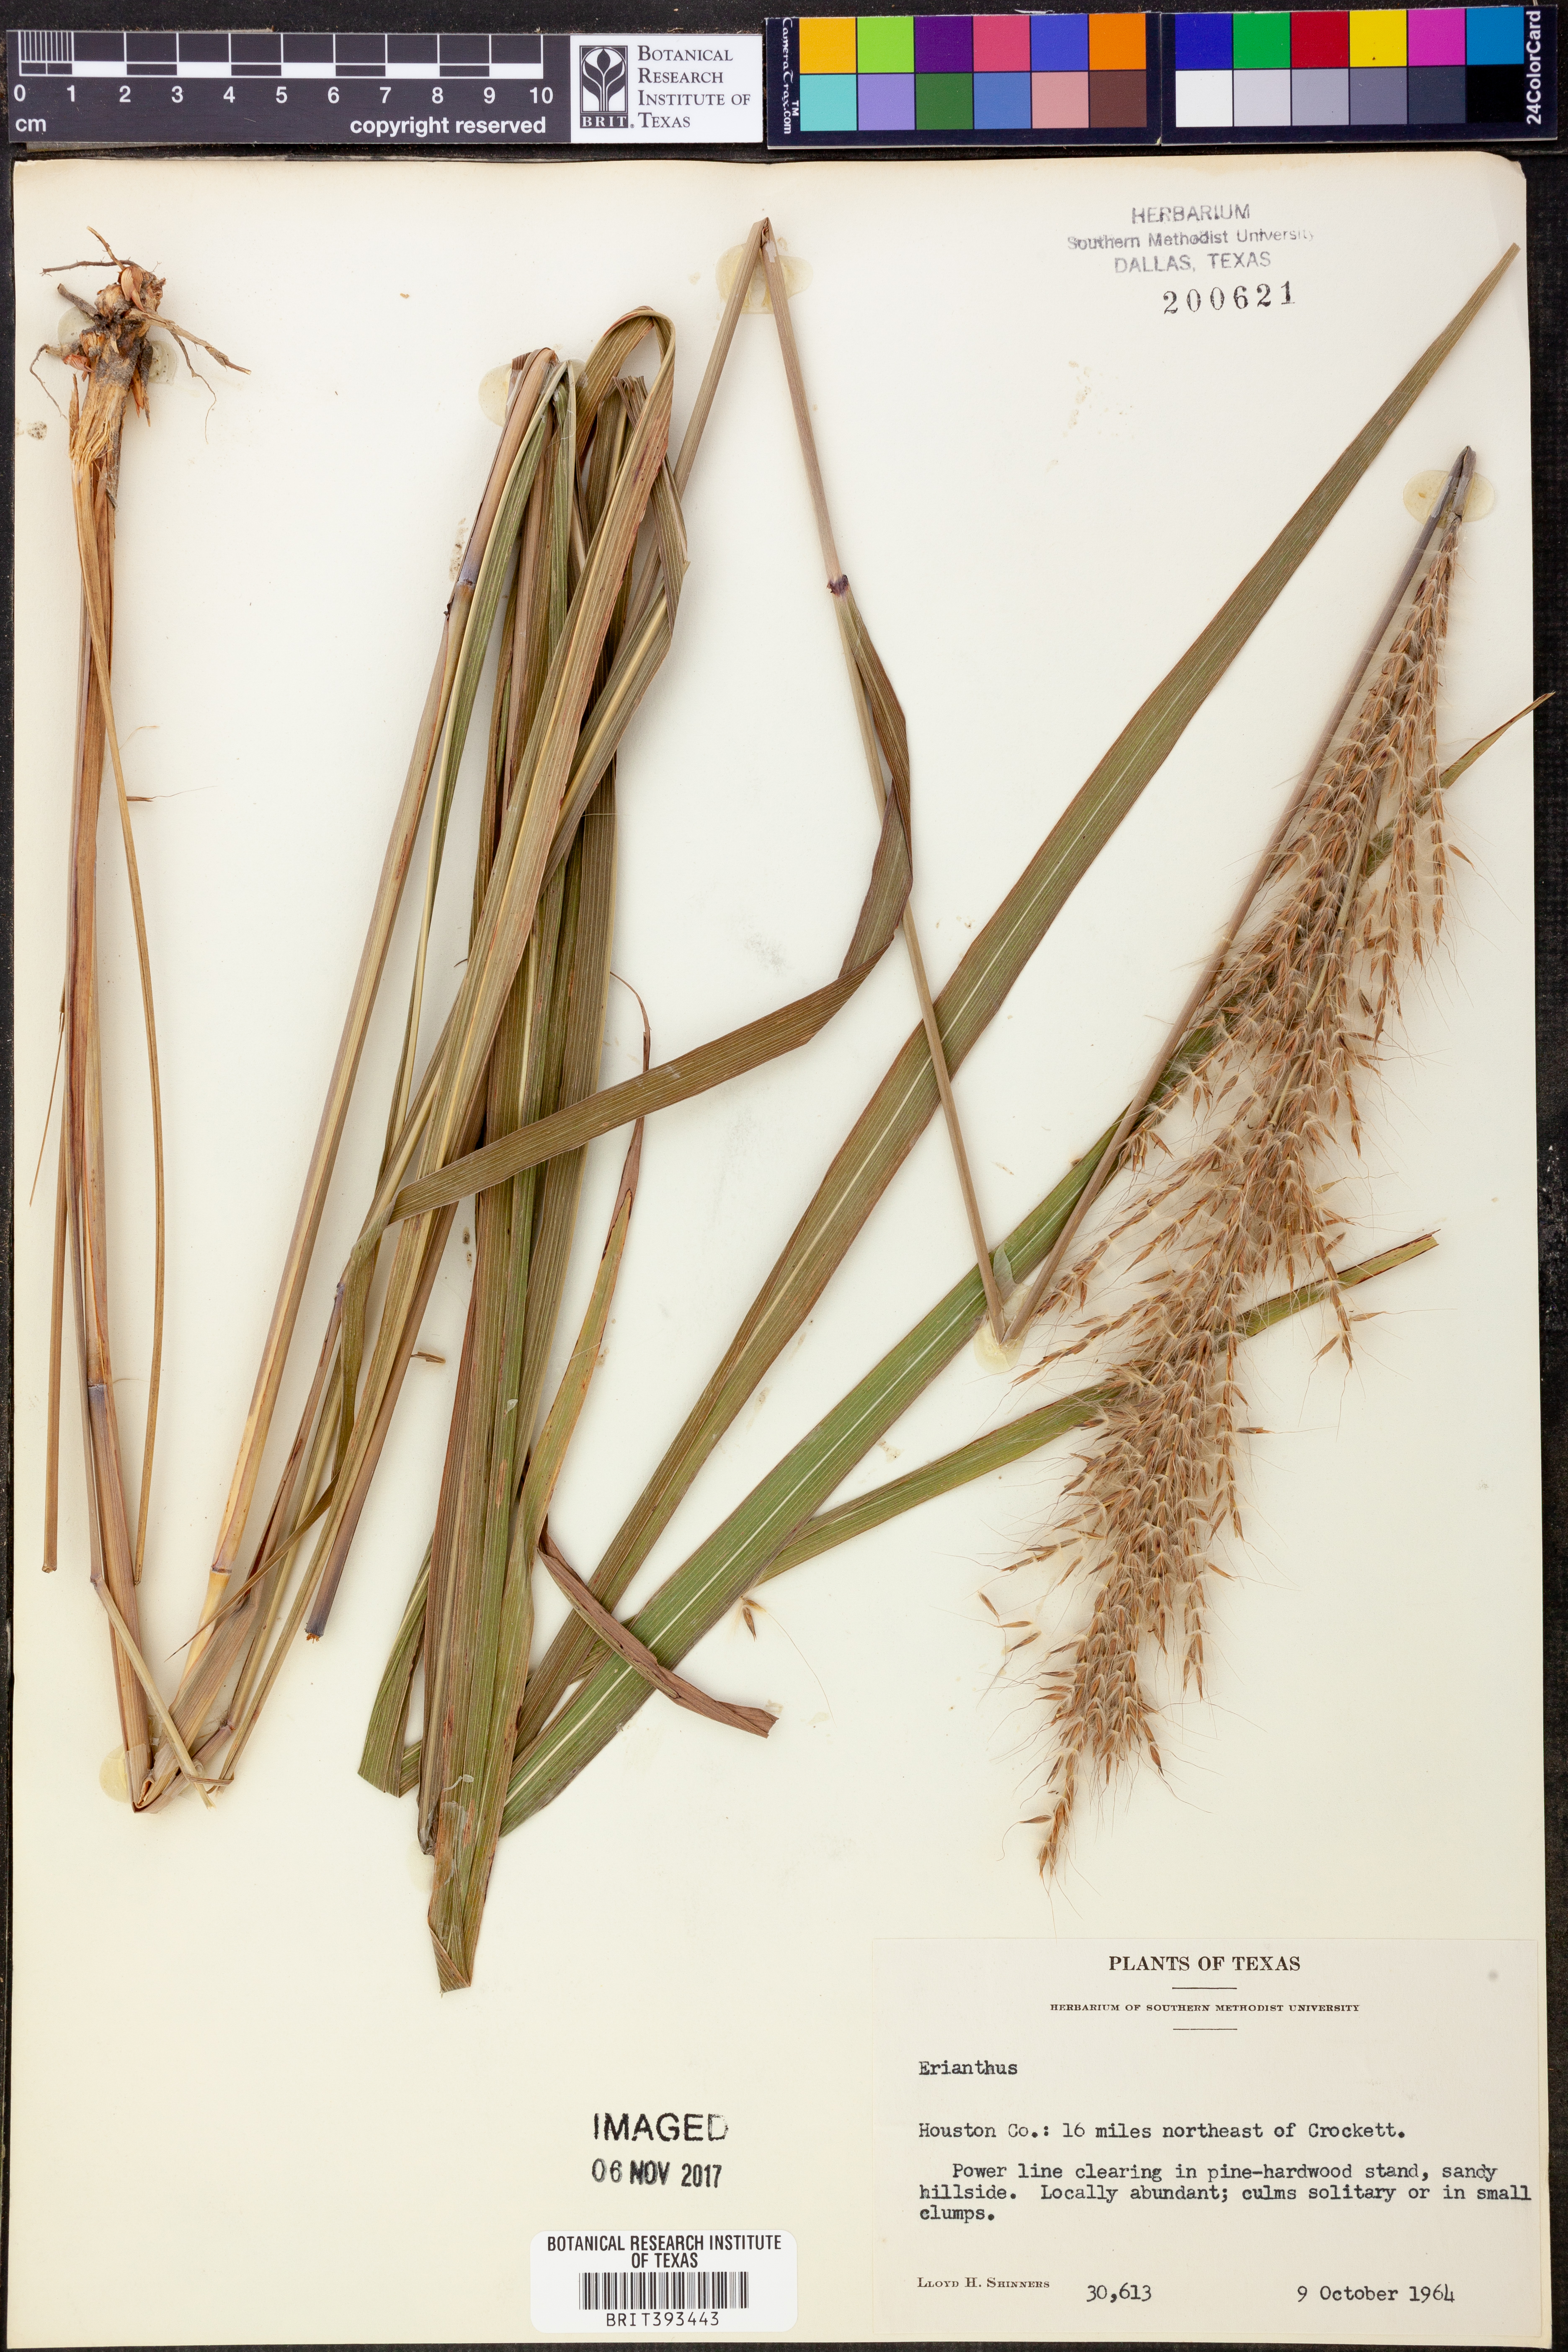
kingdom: Plantae
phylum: Tracheophyta
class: Liliopsida
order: Poales
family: Poaceae
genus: Erianthus
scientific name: Erianthus
